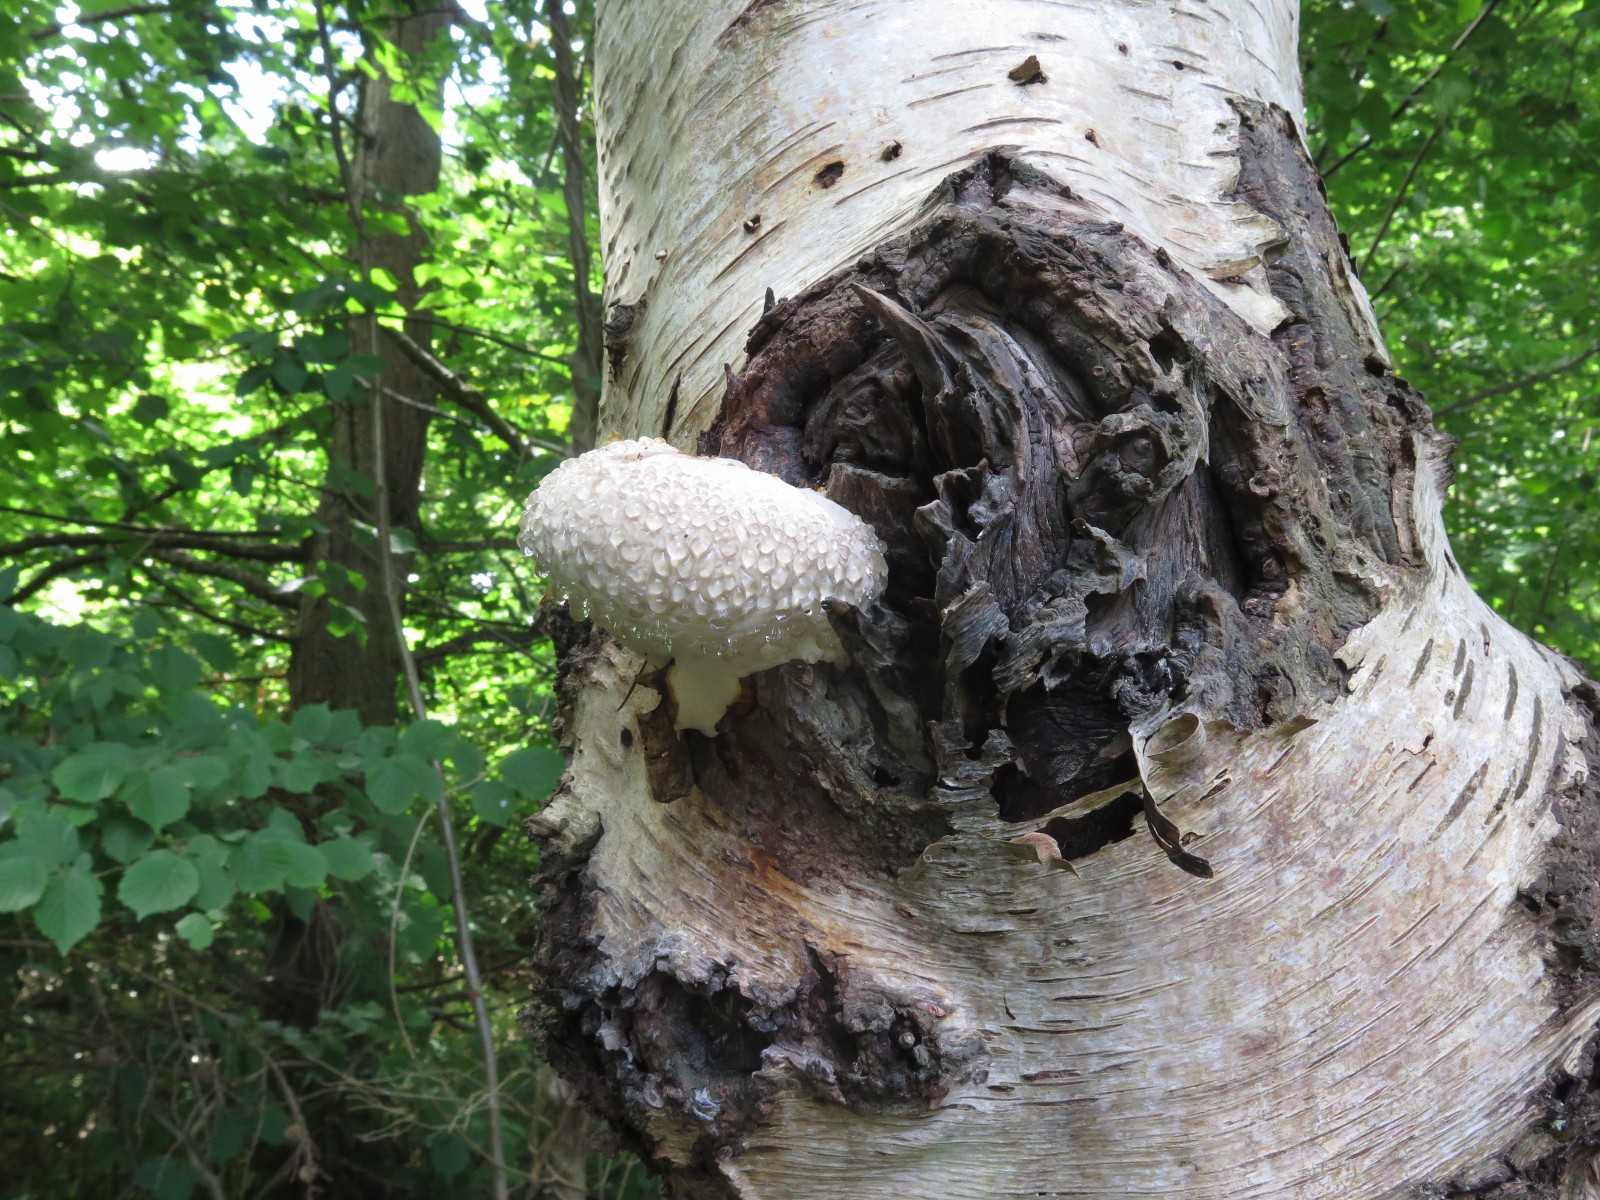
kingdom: Fungi
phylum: Basidiomycota
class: Agaricomycetes
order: Polyporales
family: Fomitopsidaceae
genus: Fomitopsis
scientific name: Fomitopsis betulina
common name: birkeporesvamp
